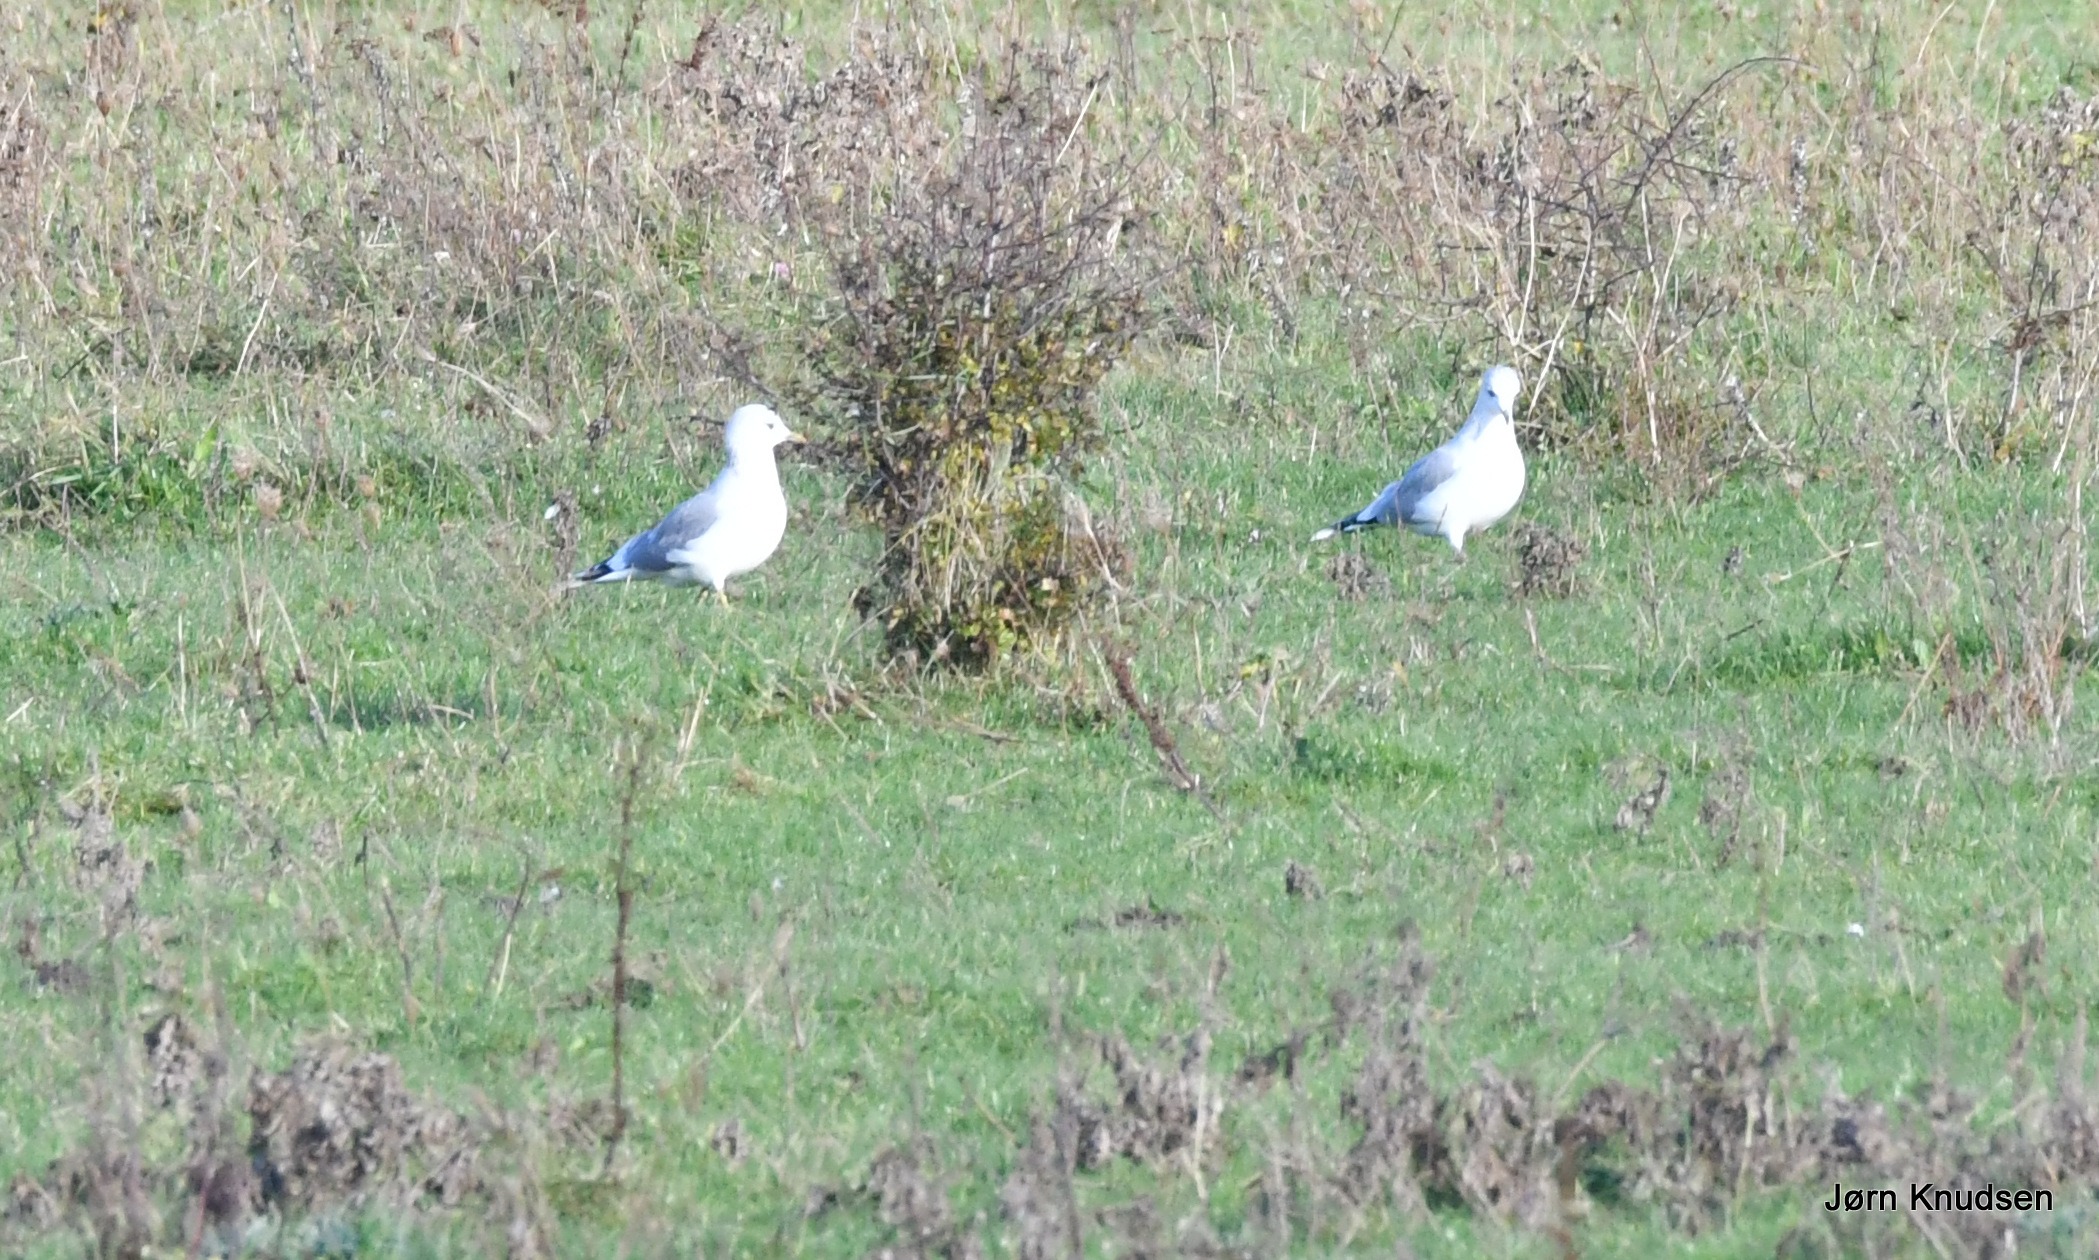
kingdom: Animalia
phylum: Chordata
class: Aves
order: Charadriiformes
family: Laridae
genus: Larus
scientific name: Larus canus
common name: Stormmåge
